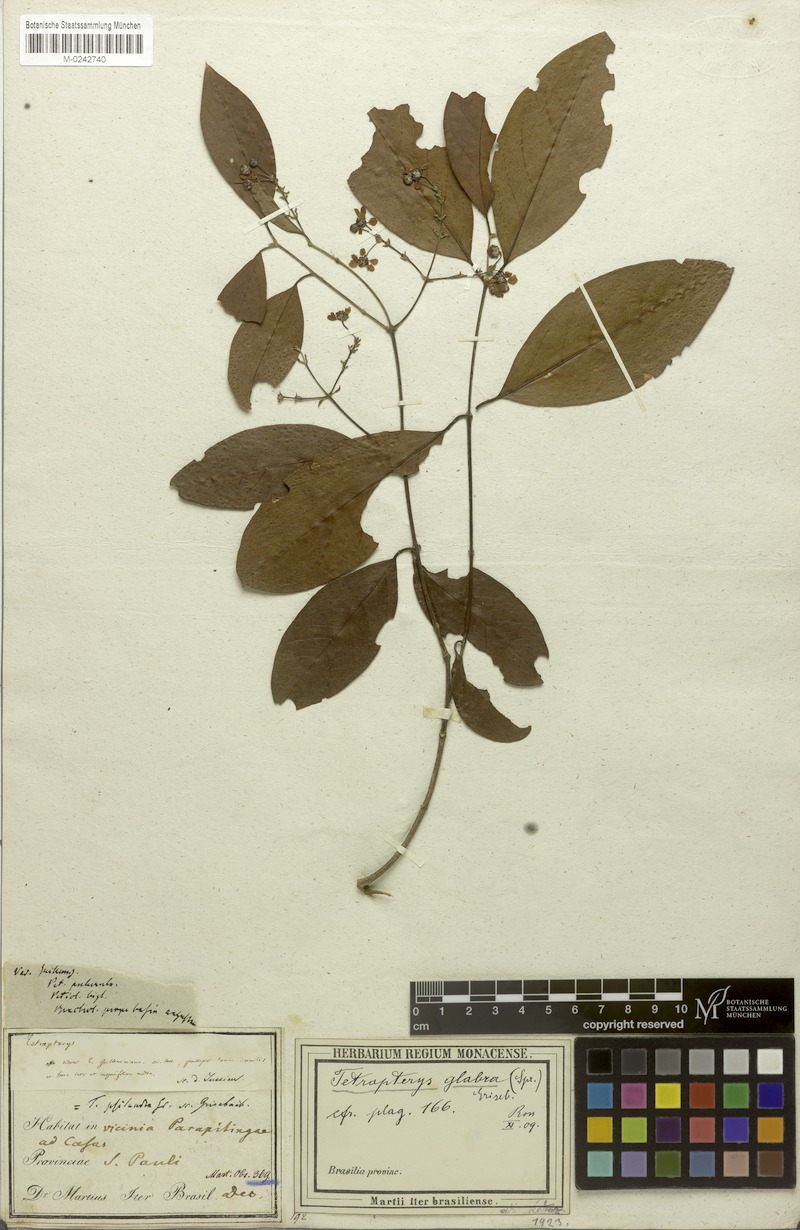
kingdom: Plantae
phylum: Tracheophyta
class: Magnoliopsida
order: Malpighiales
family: Malpighiaceae
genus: Niedenzuella
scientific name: Niedenzuella acutifolia
